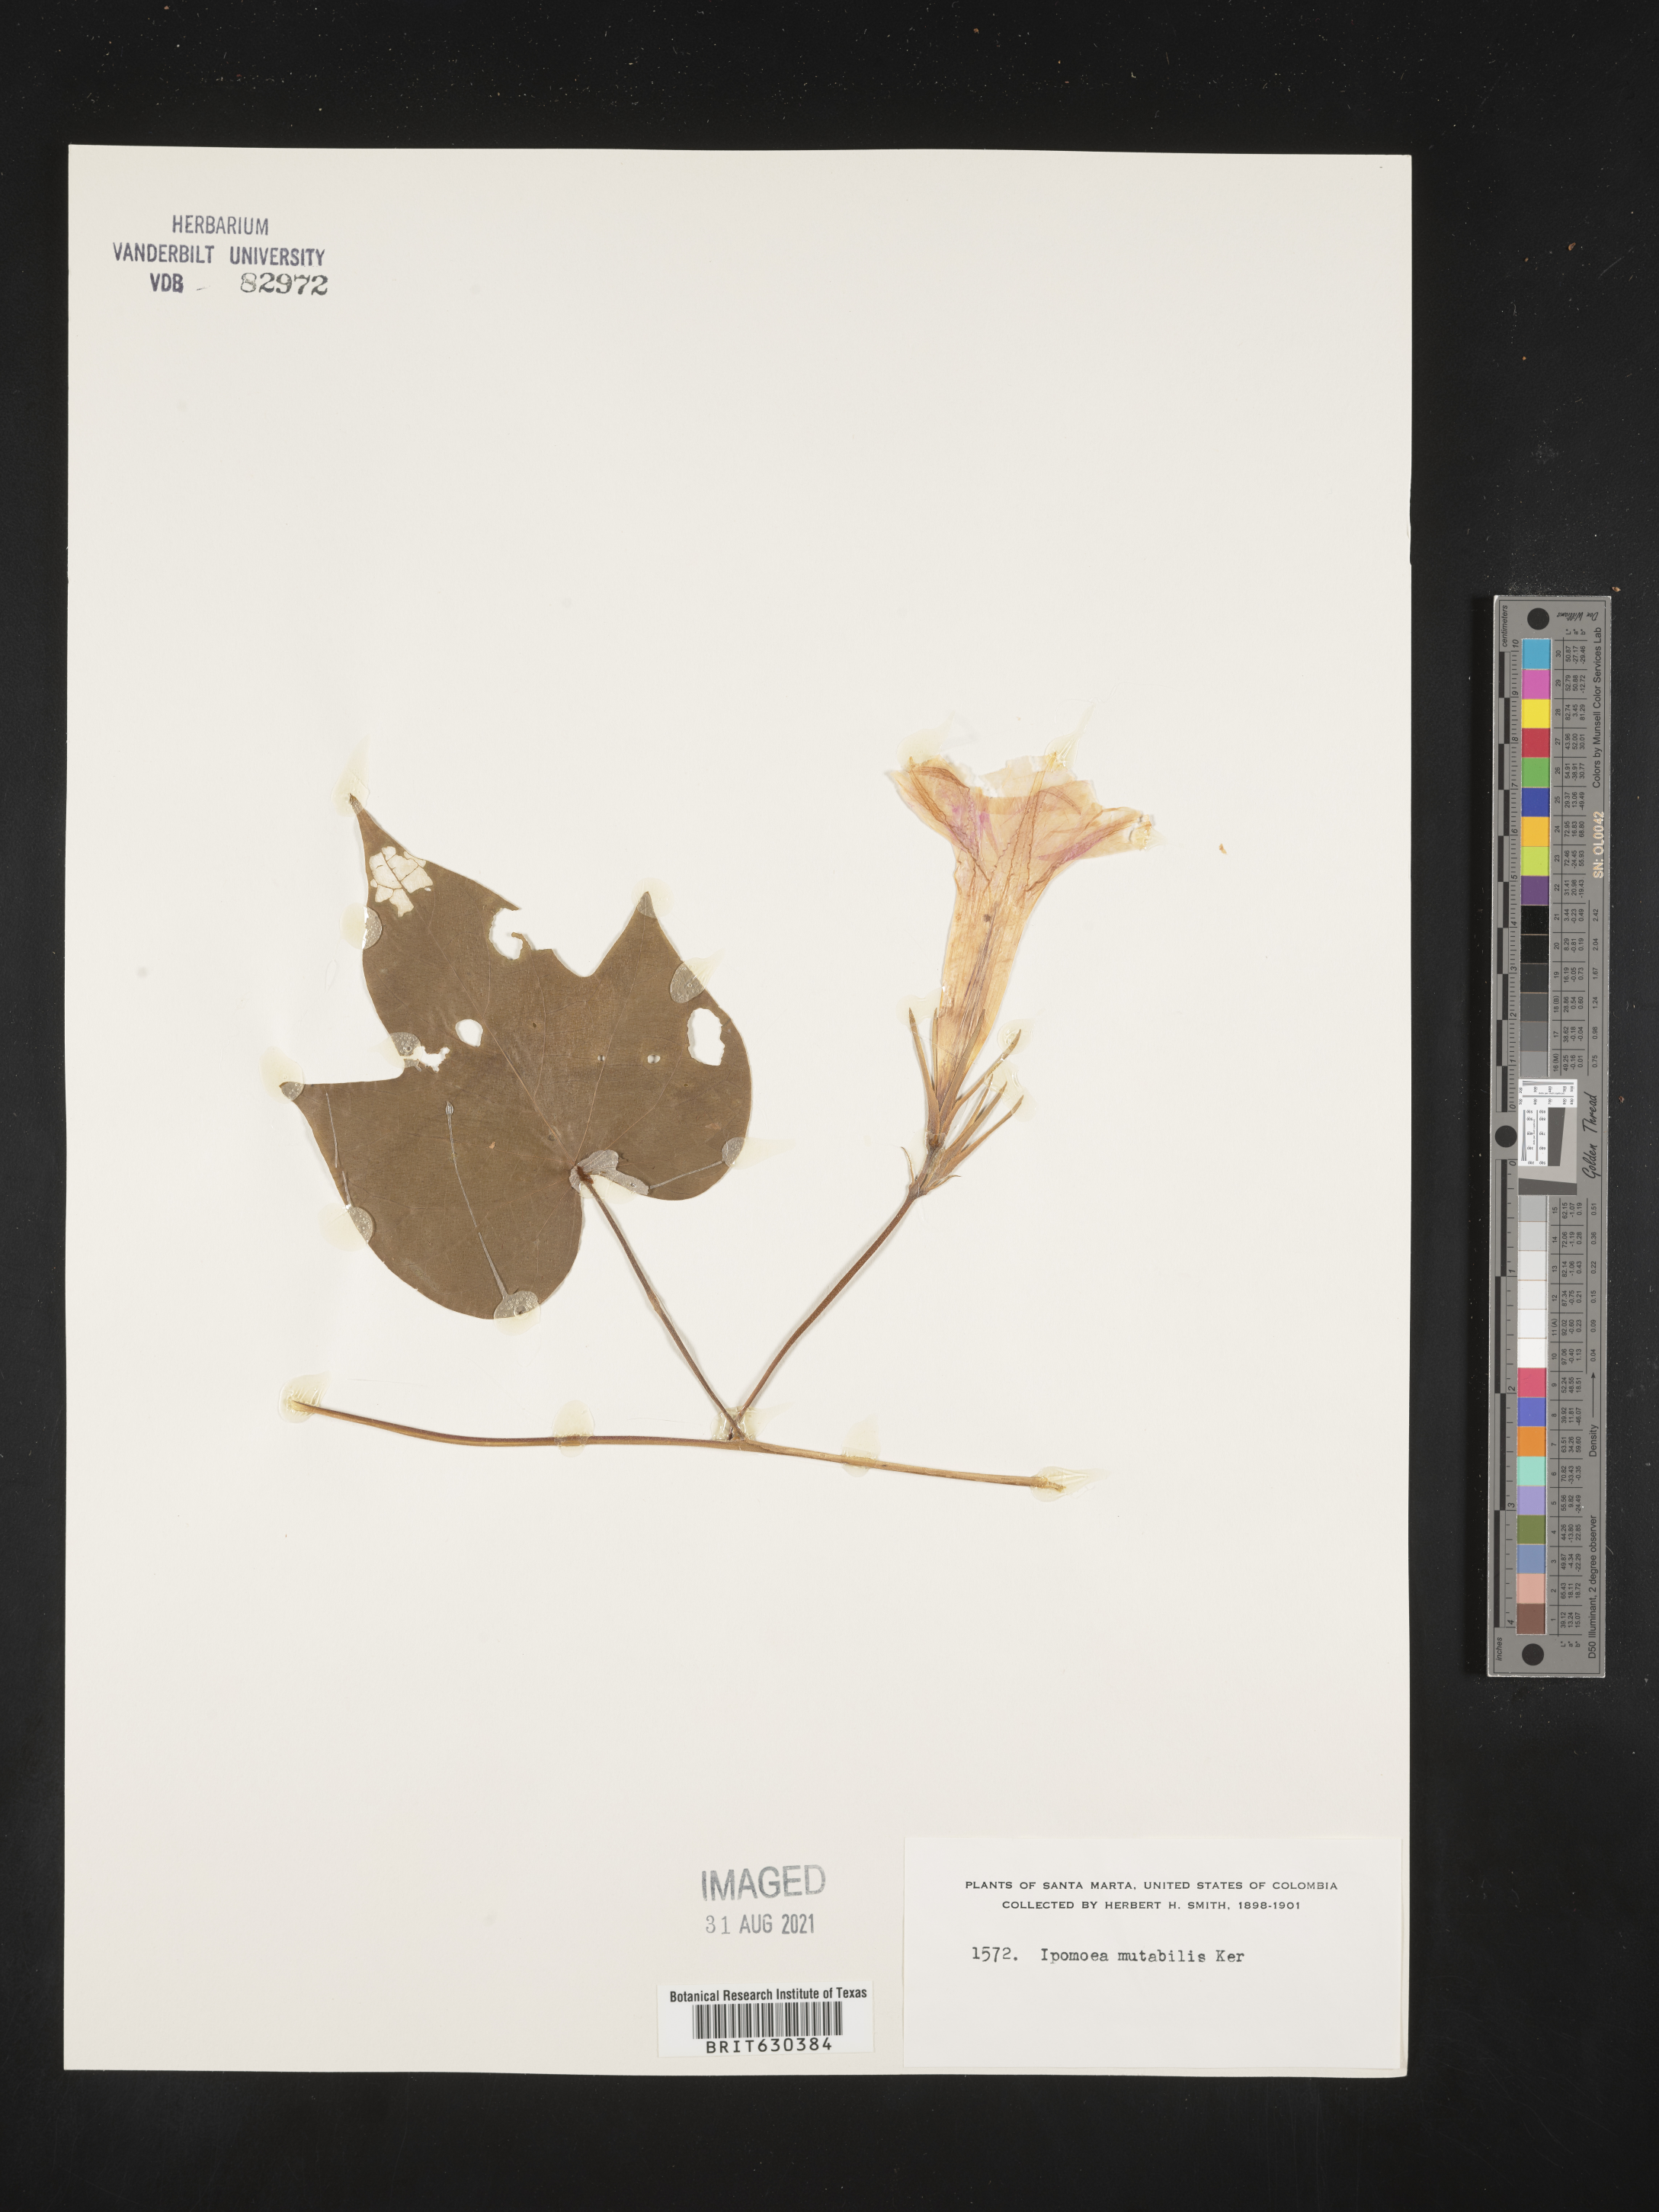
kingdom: Plantae
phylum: Tracheophyta
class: Magnoliopsida
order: Solanales
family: Convolvulaceae
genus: Ipomoea
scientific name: Ipomoea indica
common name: Blue dawnflower
